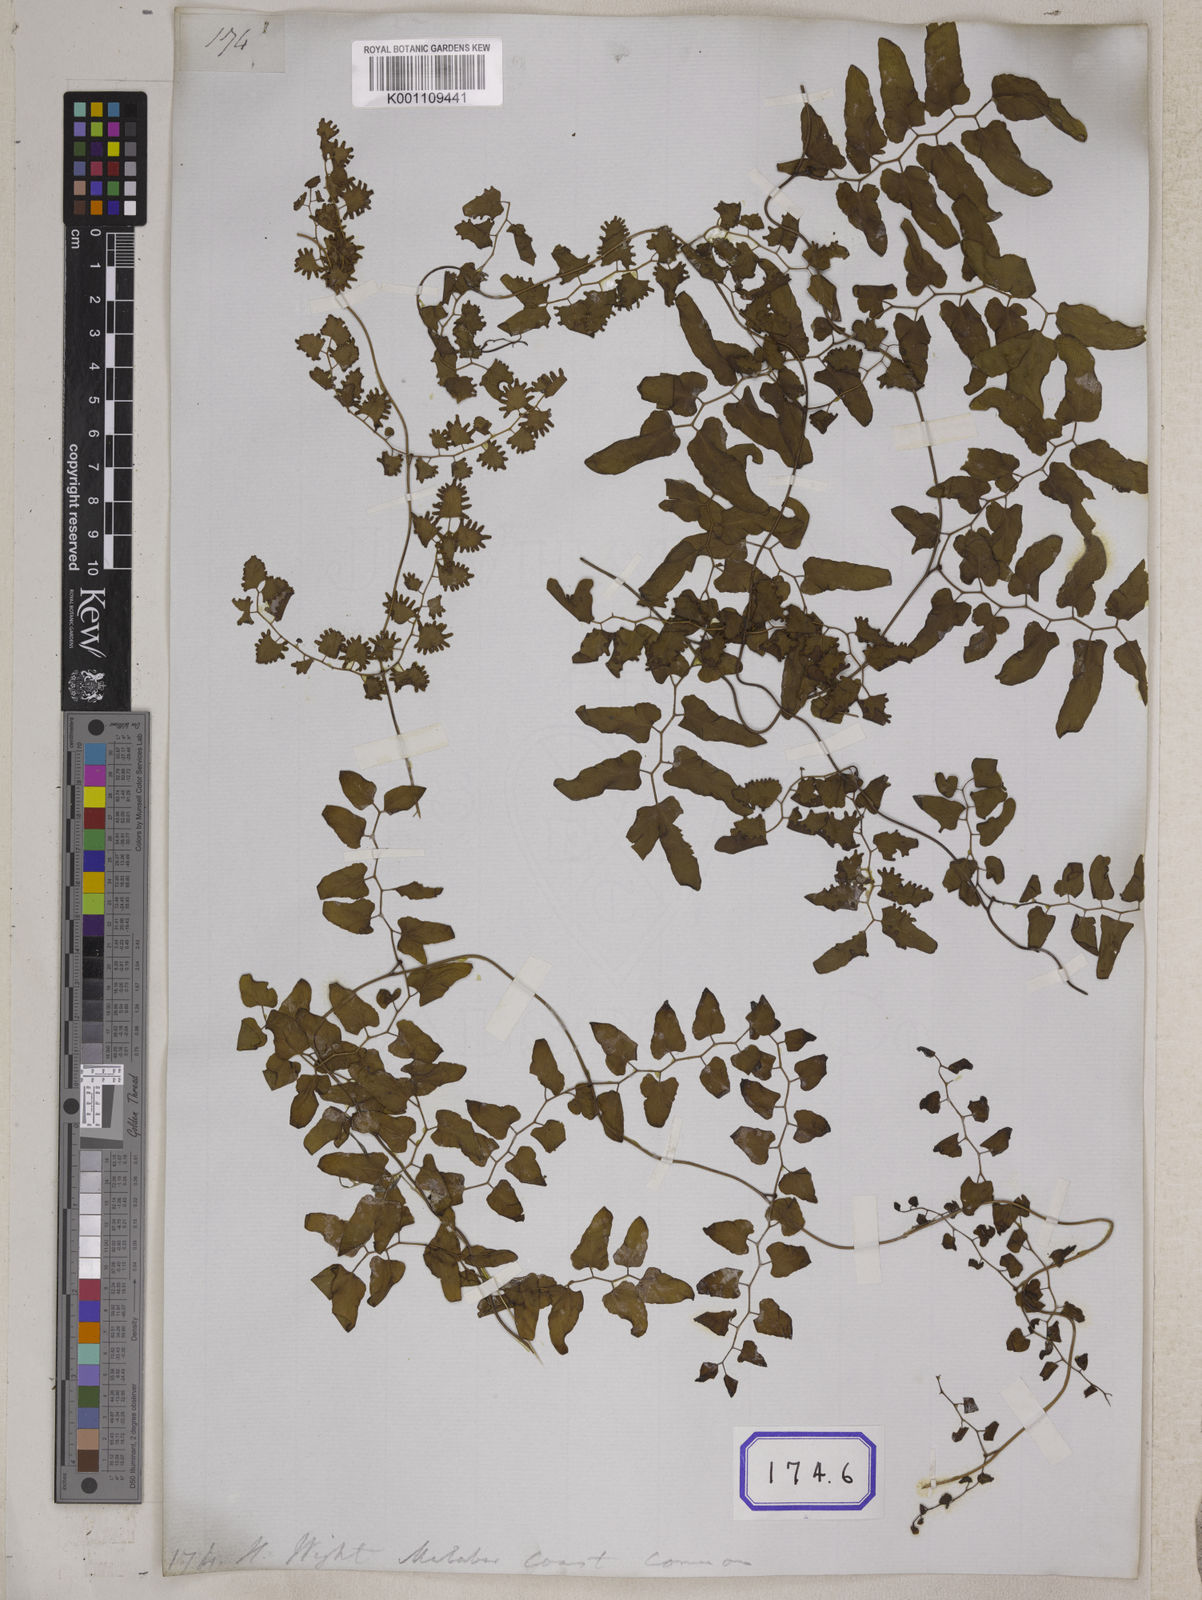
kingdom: Plantae
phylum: Tracheophyta
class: Polypodiopsida
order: Schizaeales
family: Lygodiaceae
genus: Lygodium
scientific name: Lygodium
